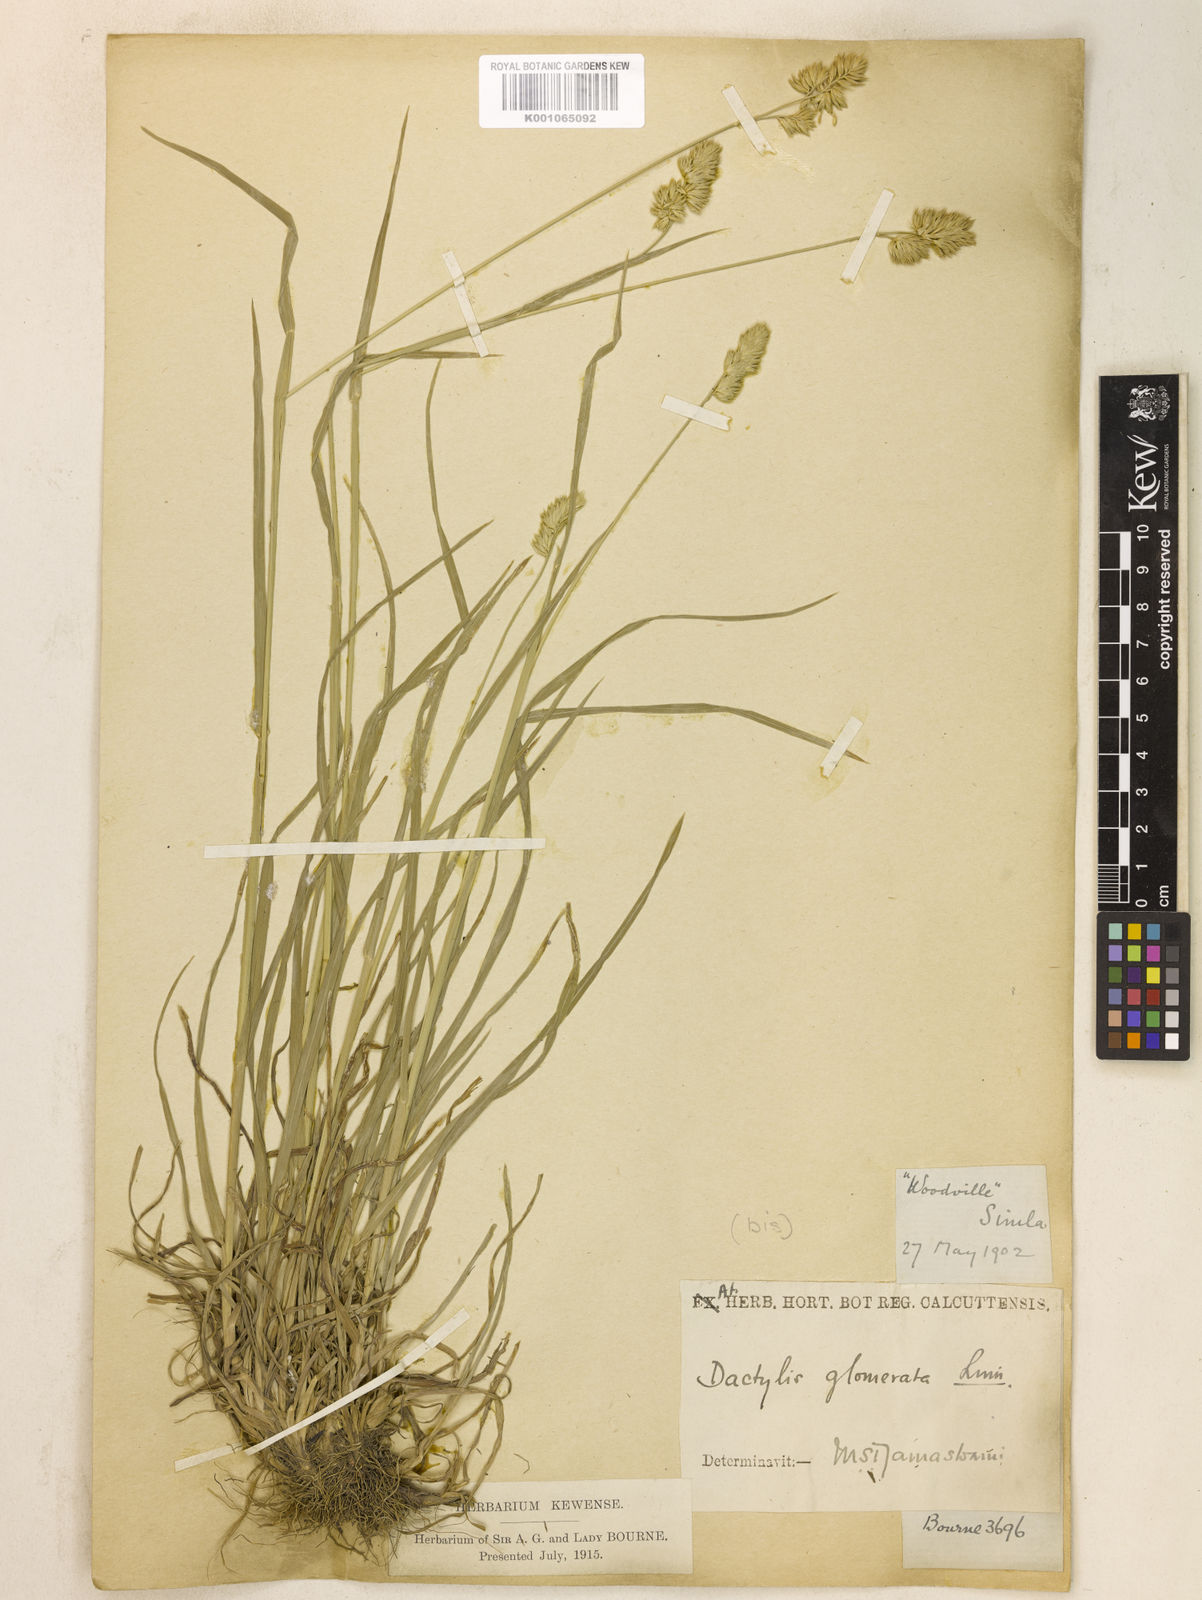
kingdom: Plantae
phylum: Tracheophyta
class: Liliopsida
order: Poales
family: Poaceae
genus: Dactylis
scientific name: Dactylis glomerata
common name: Orchardgrass
